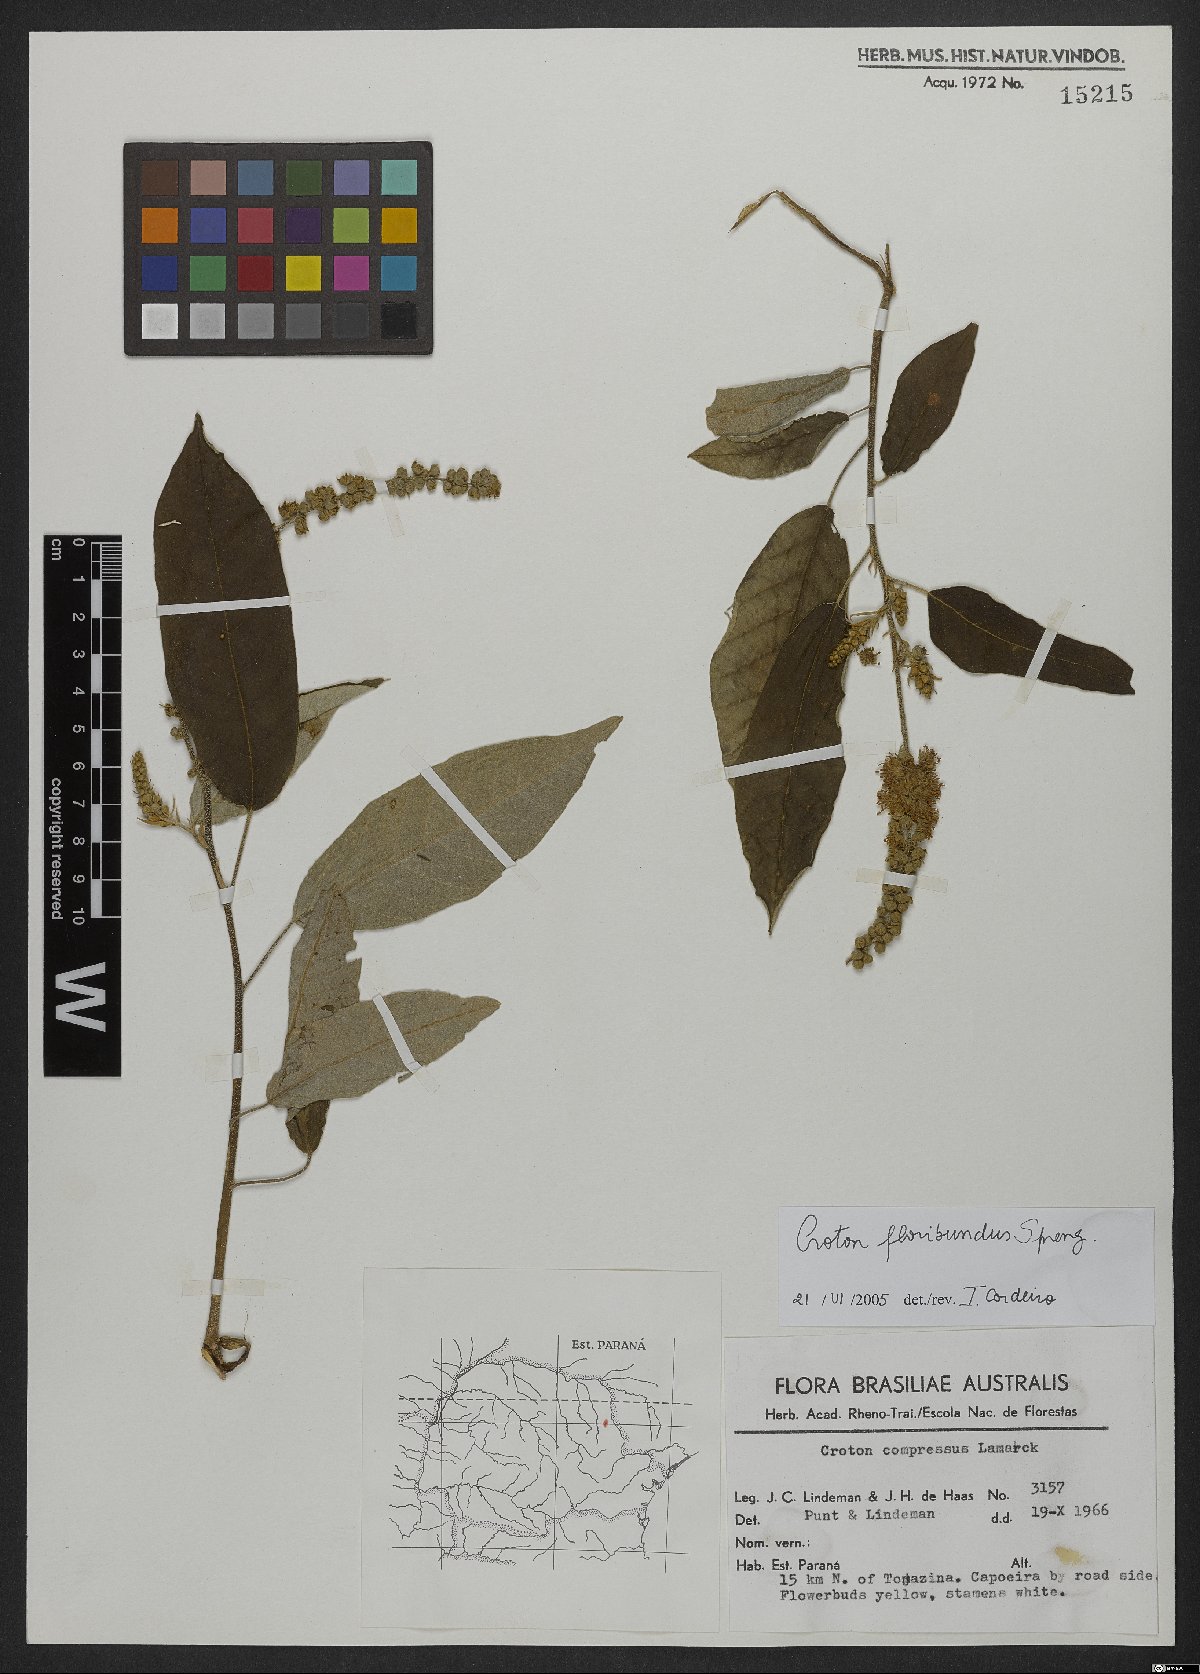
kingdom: Plantae
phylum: Tracheophyta
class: Magnoliopsida
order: Malpighiales
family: Euphorbiaceae
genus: Croton
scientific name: Croton floribundus
